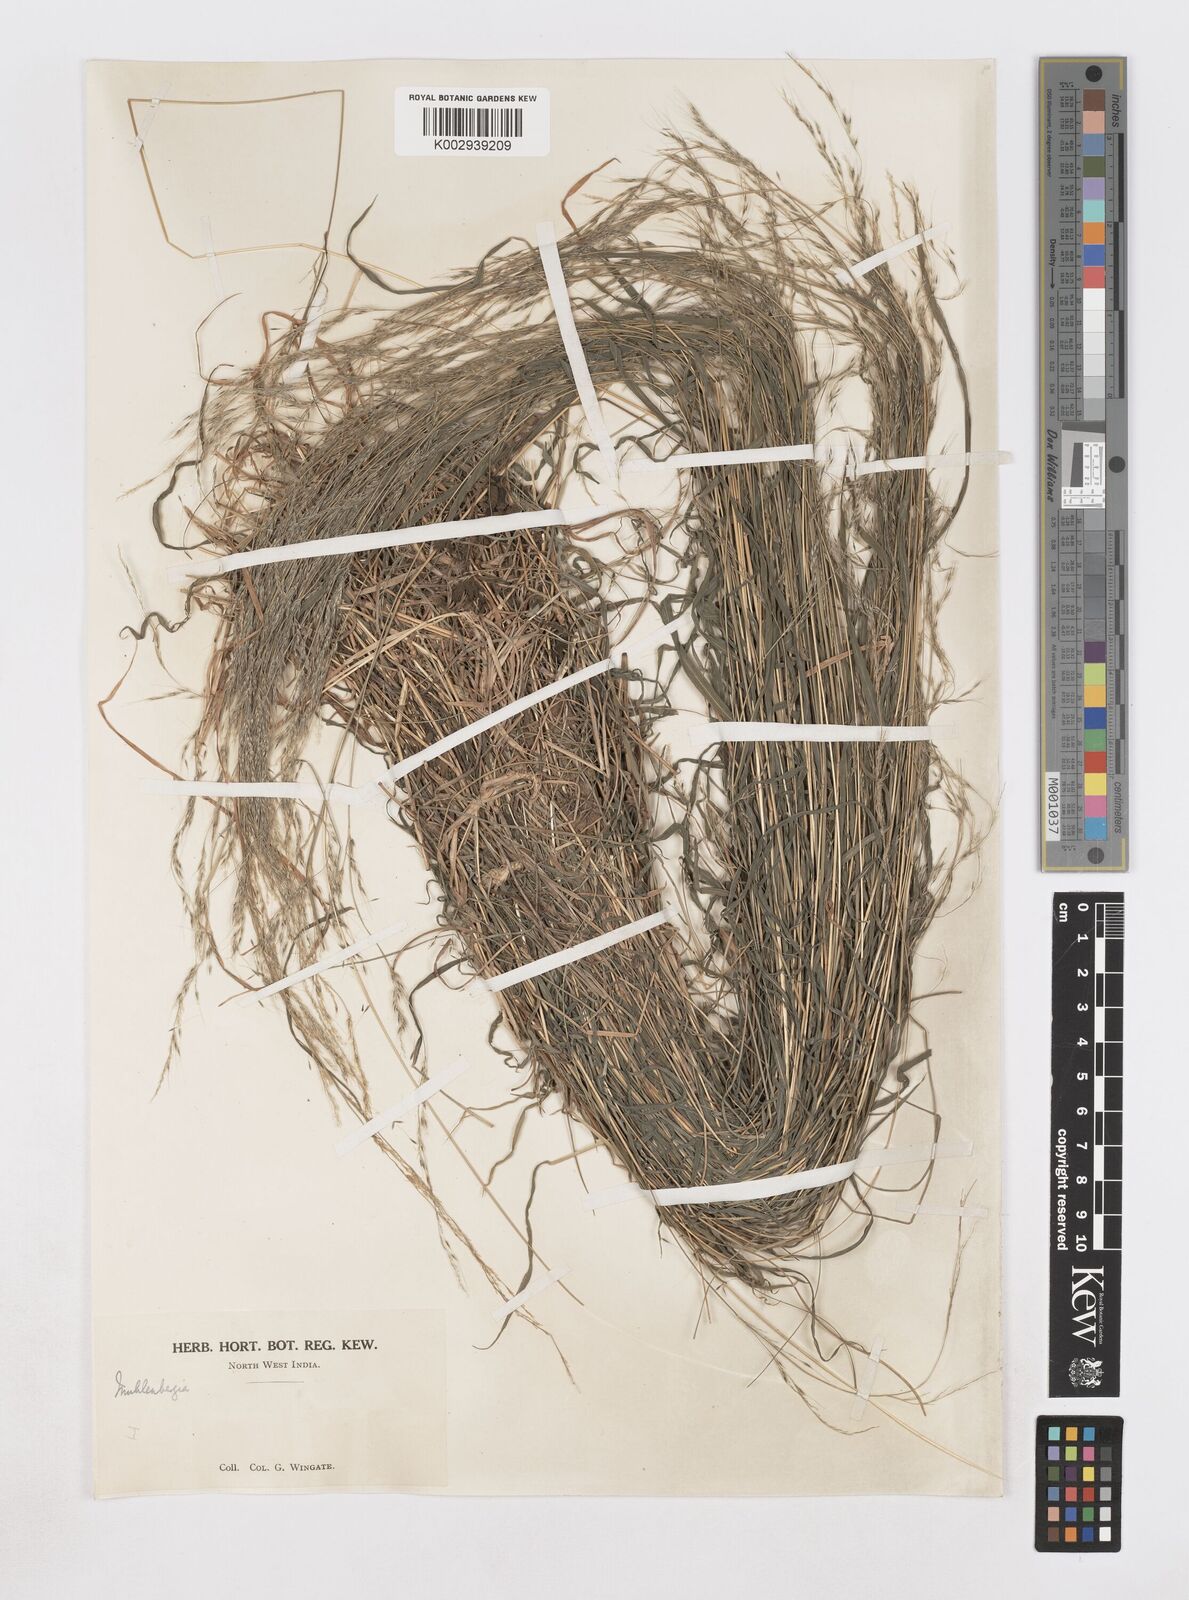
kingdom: Plantae
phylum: Tracheophyta
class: Liliopsida
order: Poales
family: Poaceae
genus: Muhlenbergia
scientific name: Muhlenbergia huegelii
